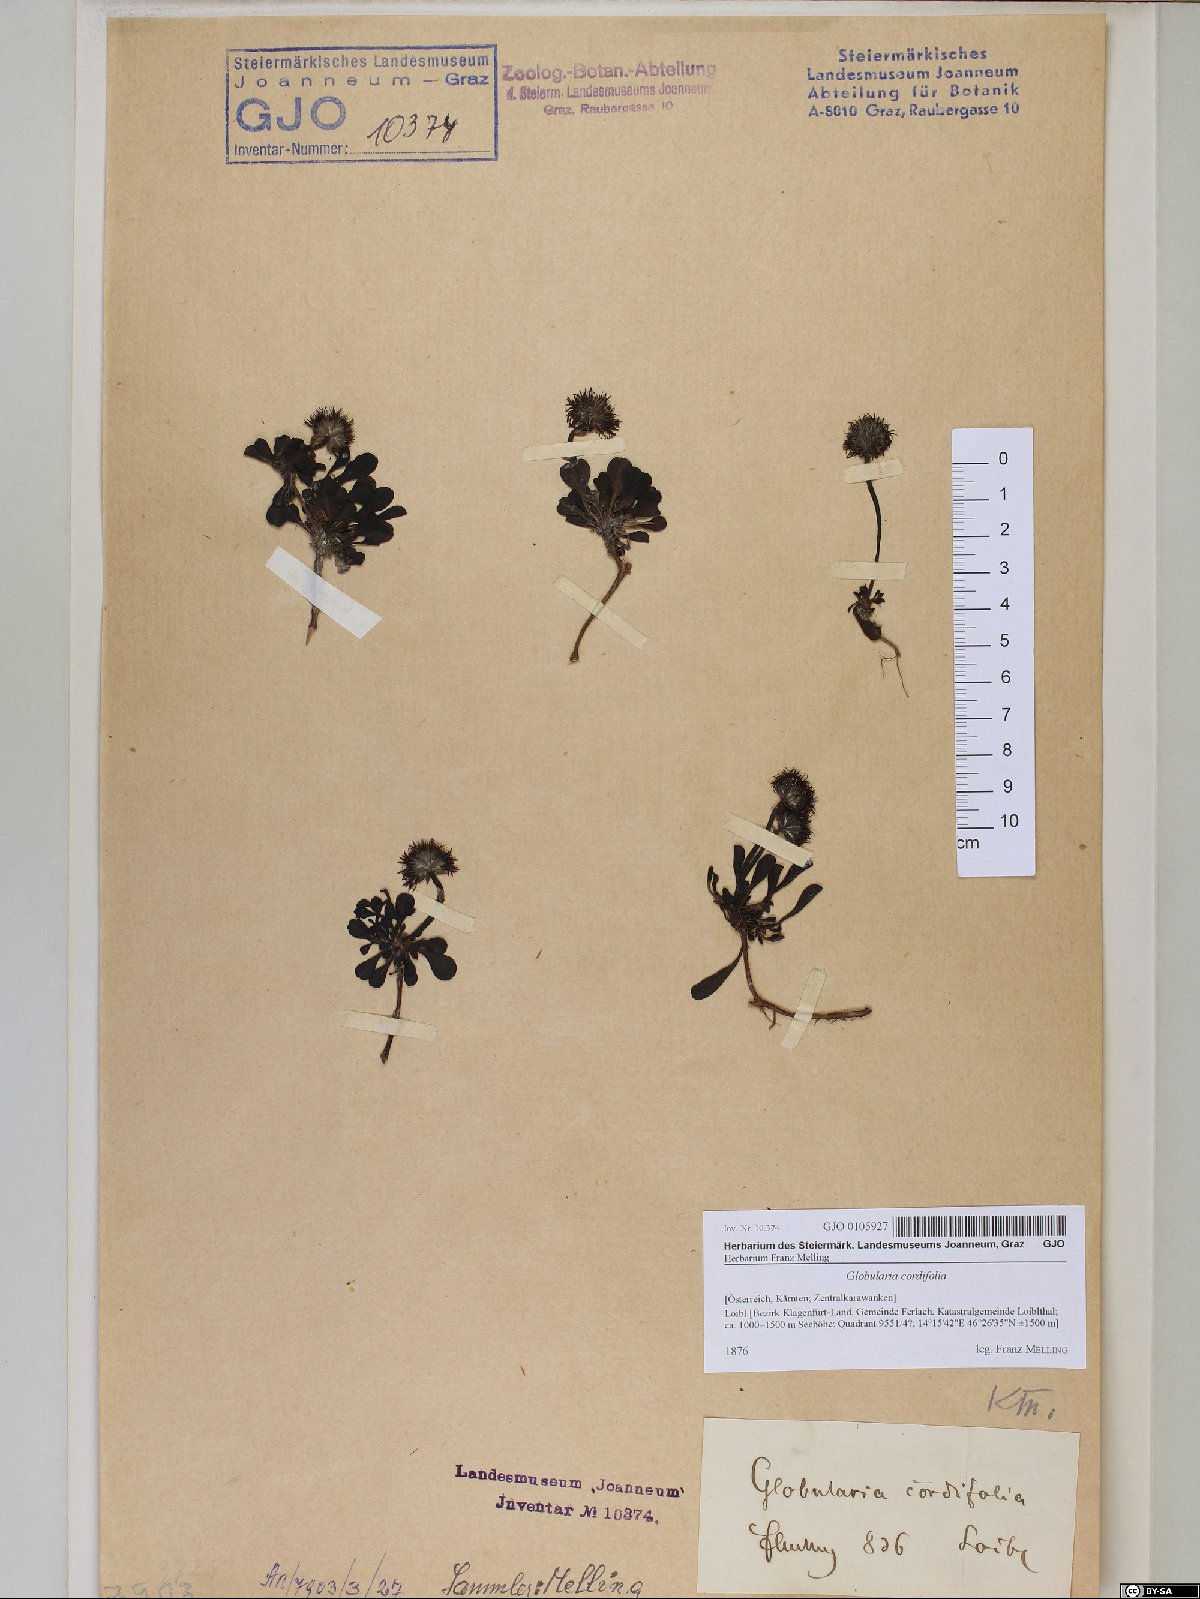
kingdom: Plantae
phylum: Tracheophyta
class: Magnoliopsida
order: Lamiales
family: Plantaginaceae
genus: Globularia
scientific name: Globularia cordifolia
